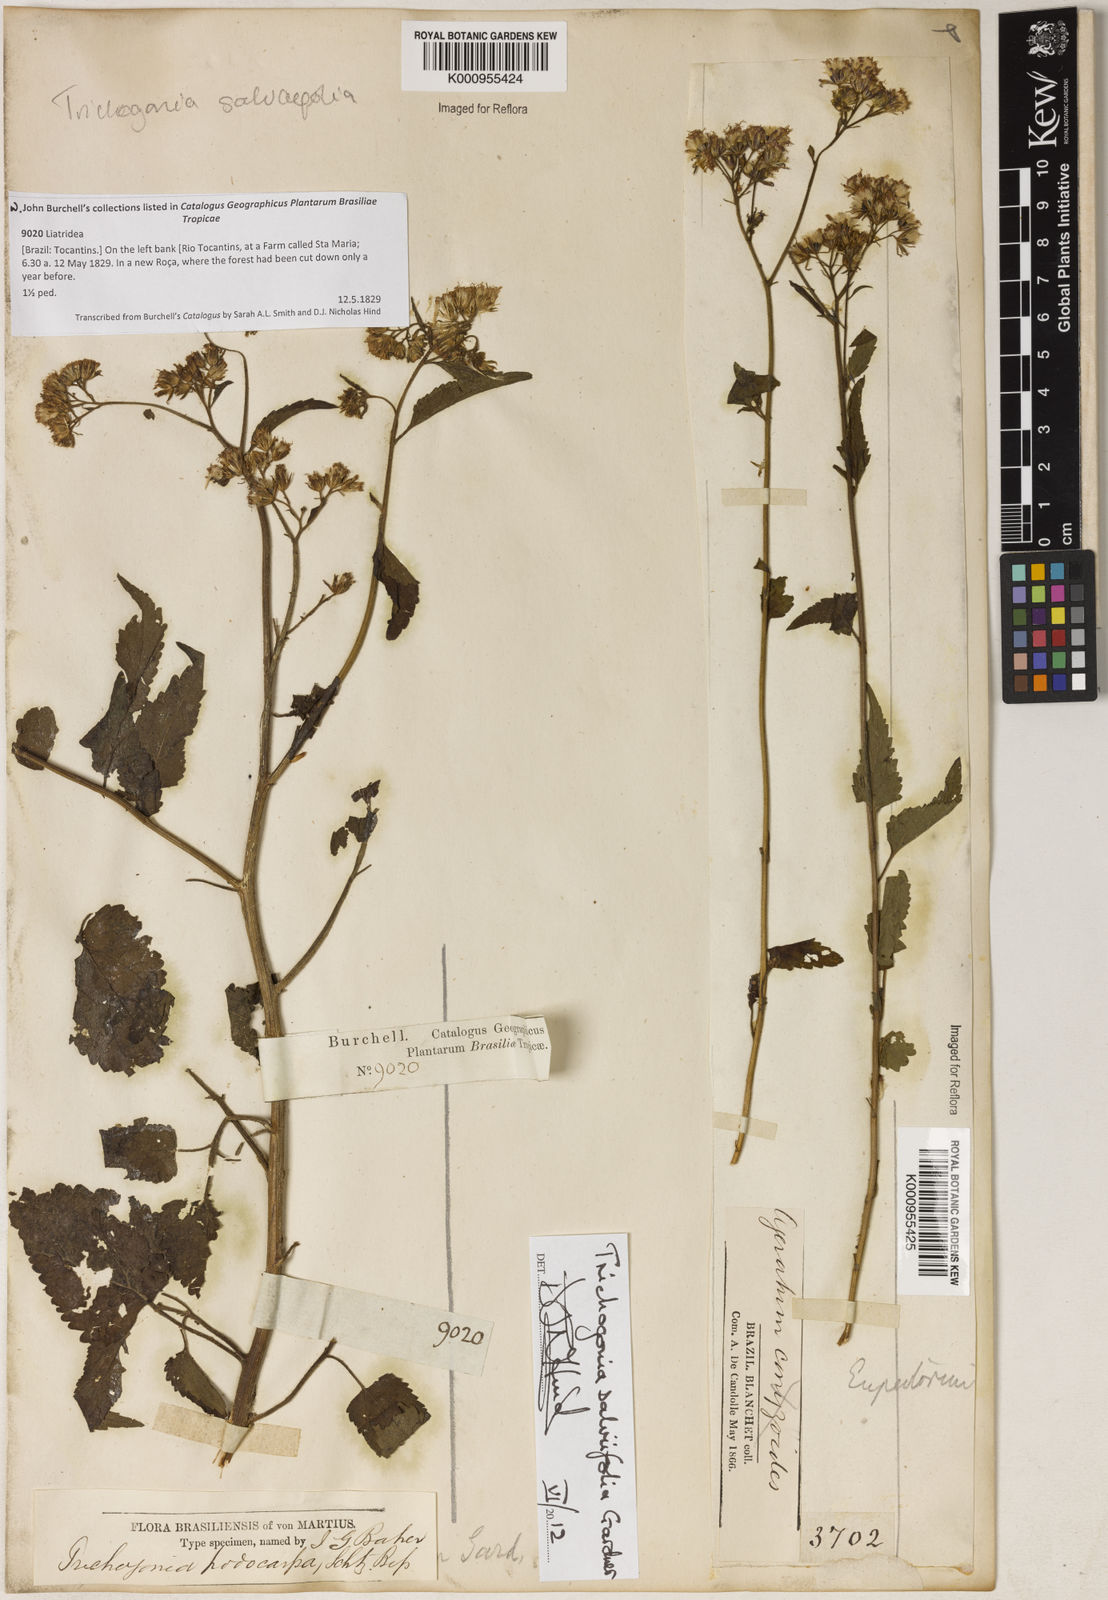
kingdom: Plantae
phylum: Tracheophyta
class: Magnoliopsida
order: Asterales
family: Asteraceae
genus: Trichogonia
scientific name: Trichogonia salviifolia
